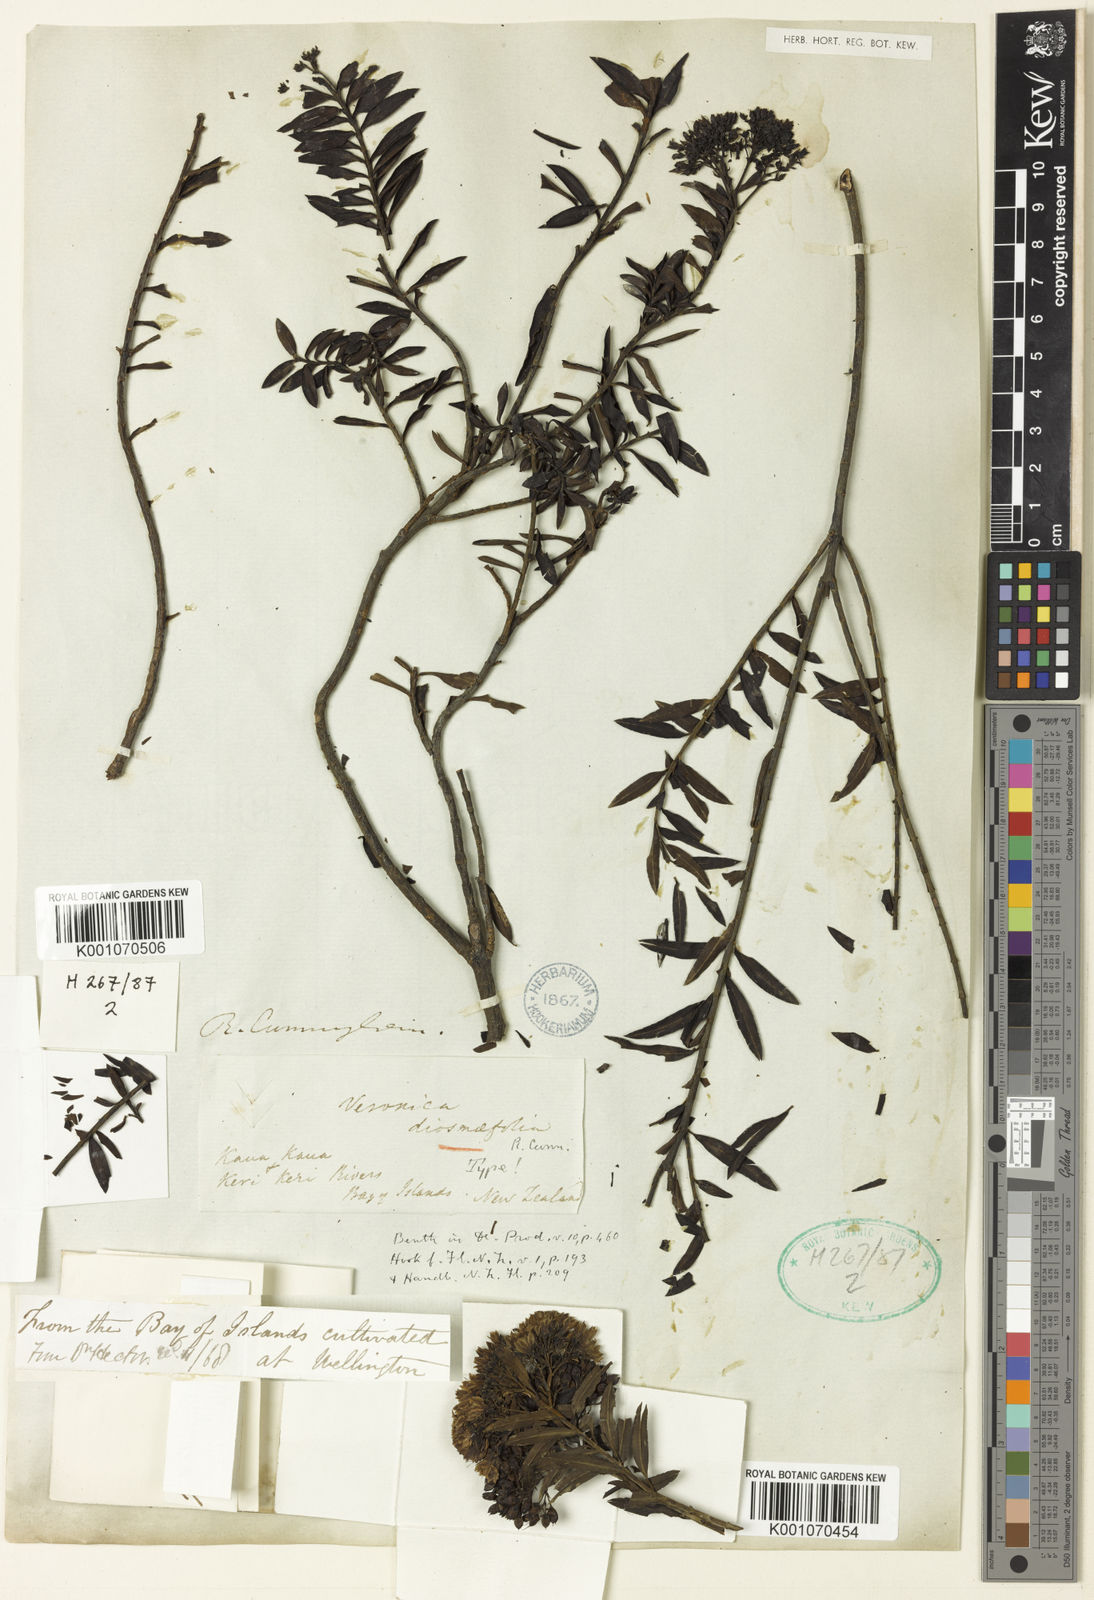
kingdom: Plantae
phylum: Tracheophyta
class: Magnoliopsida
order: Lamiales
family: Plantaginaceae
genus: Veronica
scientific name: Veronica
